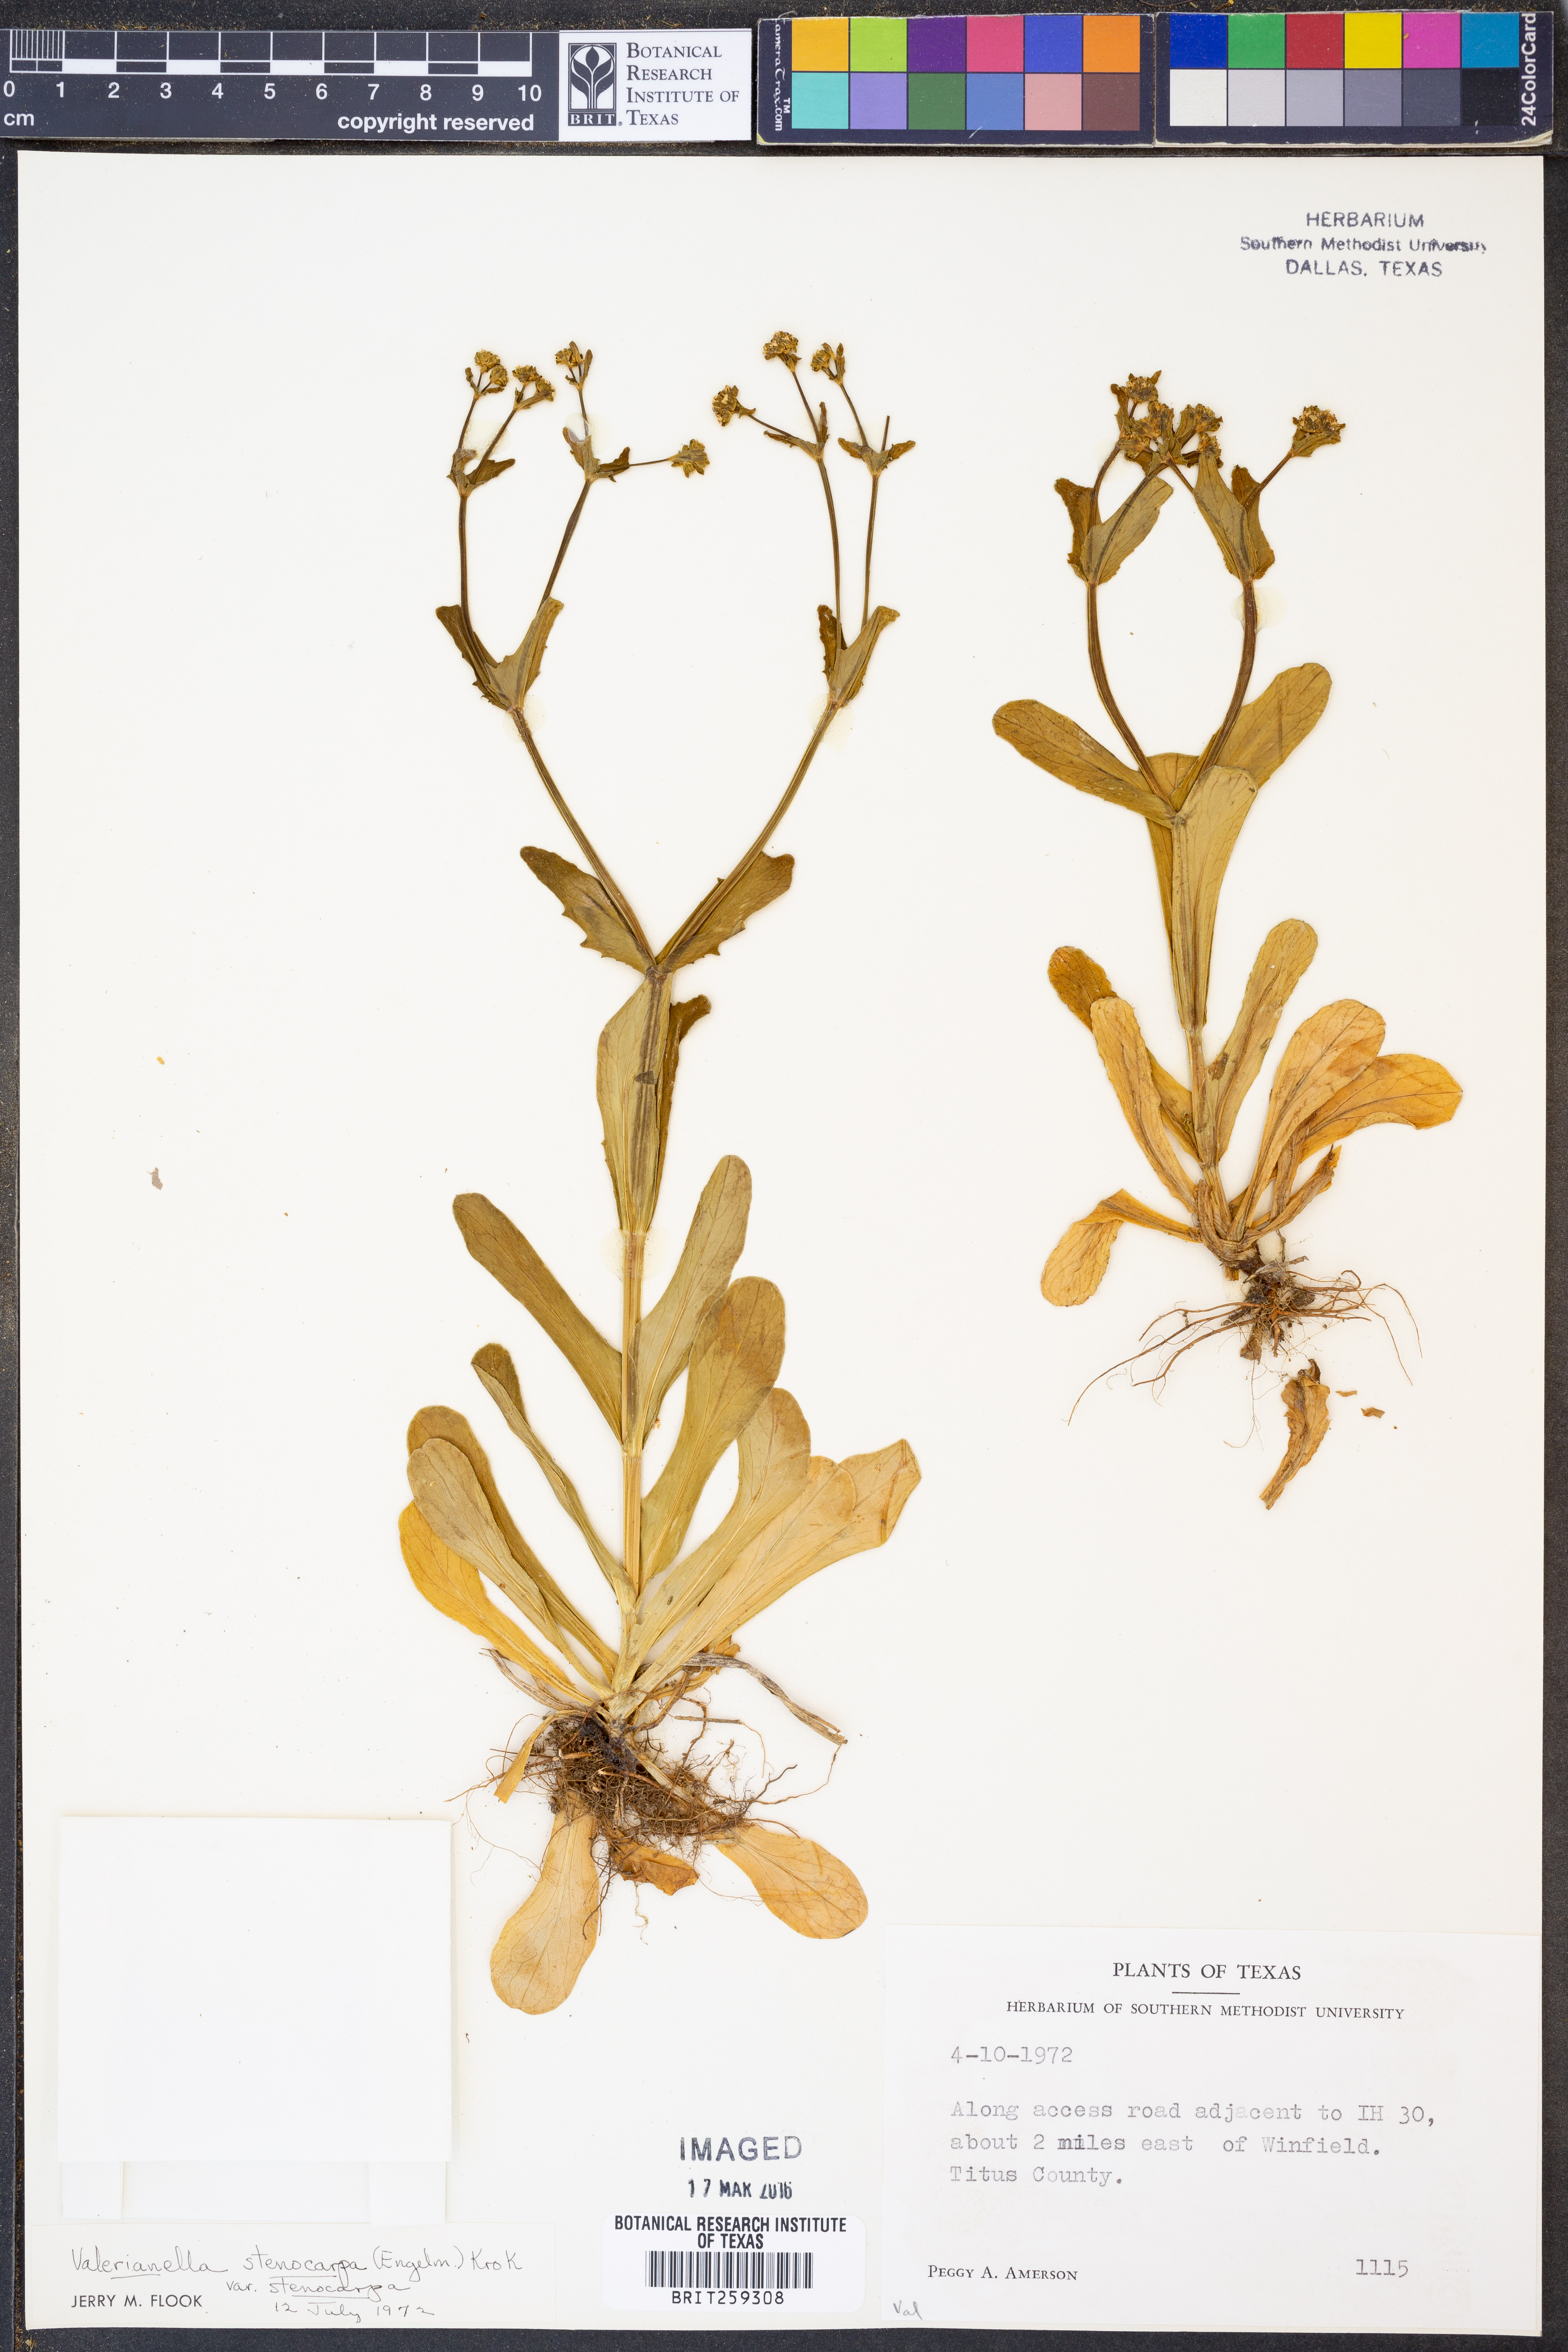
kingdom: Plantae
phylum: Tracheophyta
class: Magnoliopsida
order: Dipsacales
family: Caprifoliaceae
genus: Valerianella
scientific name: Valerianella stenocarpa
